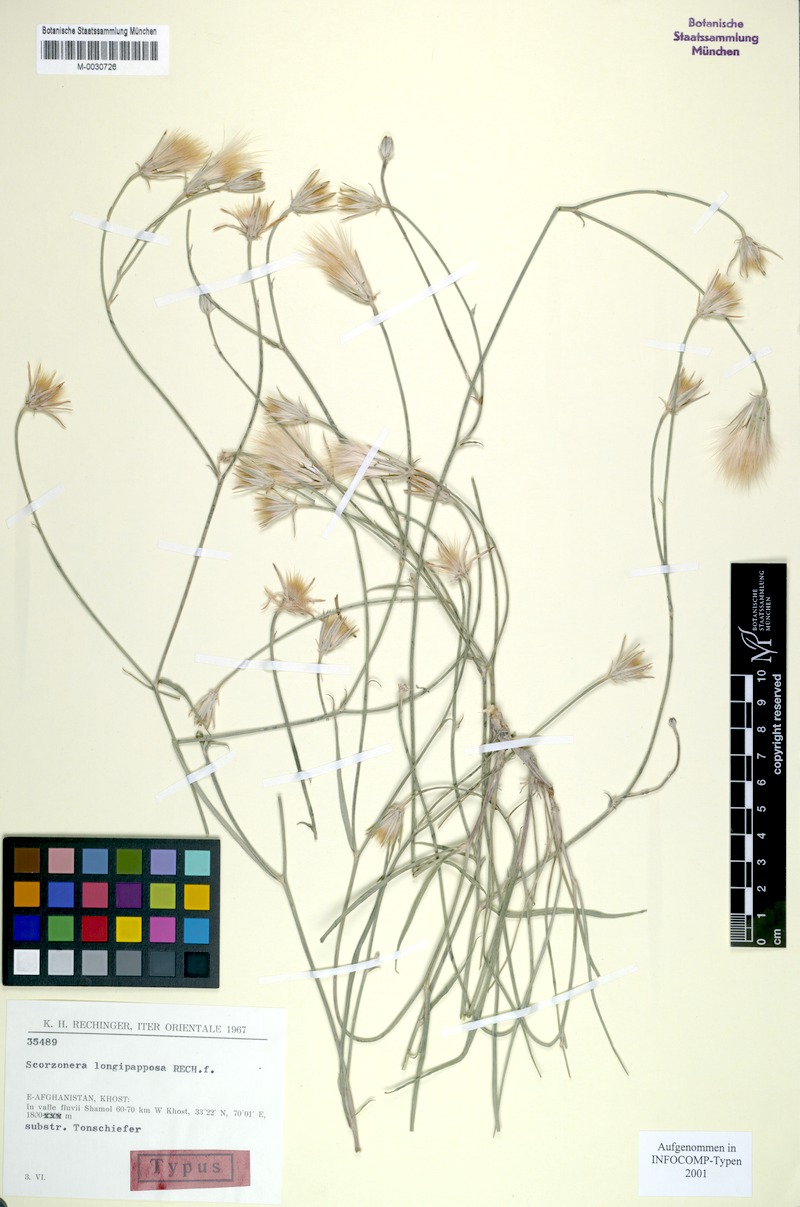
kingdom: Plantae
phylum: Tracheophyta
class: Magnoliopsida
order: Asterales
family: Asteraceae
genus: Ramaliella
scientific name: Ramaliella longipapposa
